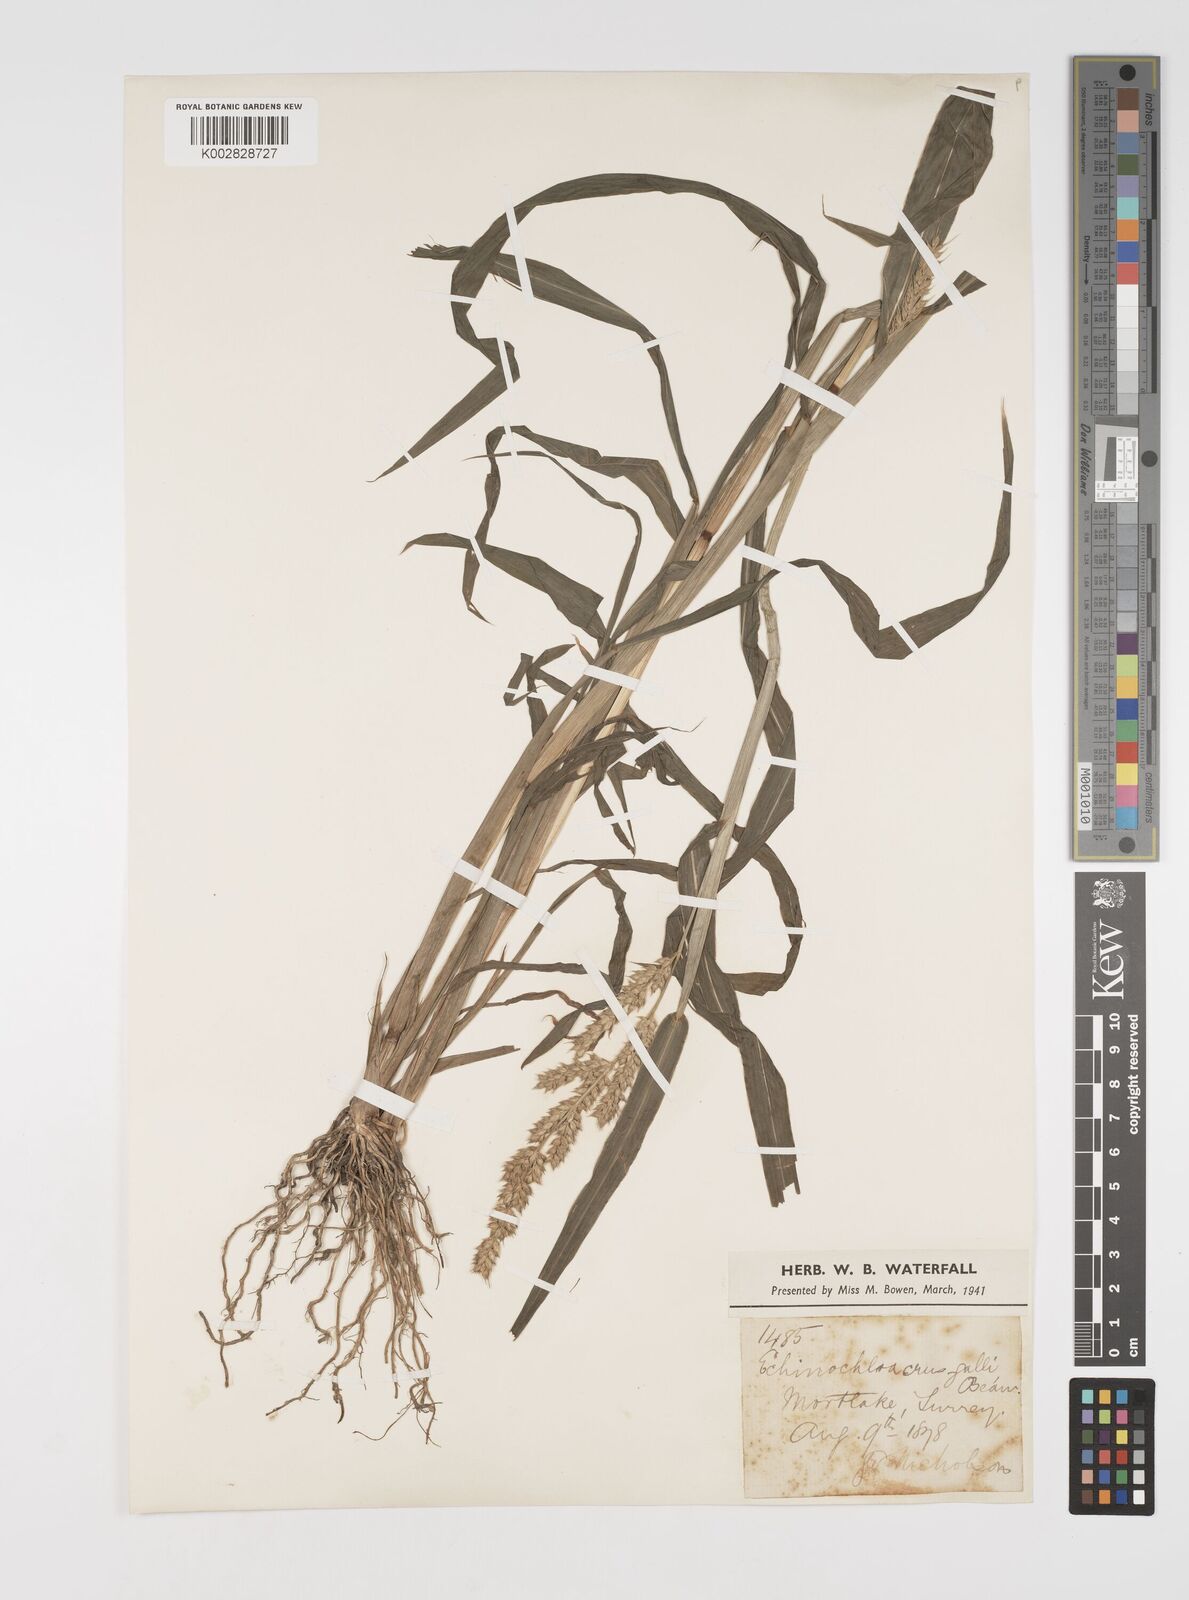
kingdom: Plantae
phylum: Tracheophyta
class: Liliopsida
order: Poales
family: Poaceae
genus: Echinochloa
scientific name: Echinochloa crus-galli
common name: Cockspur
